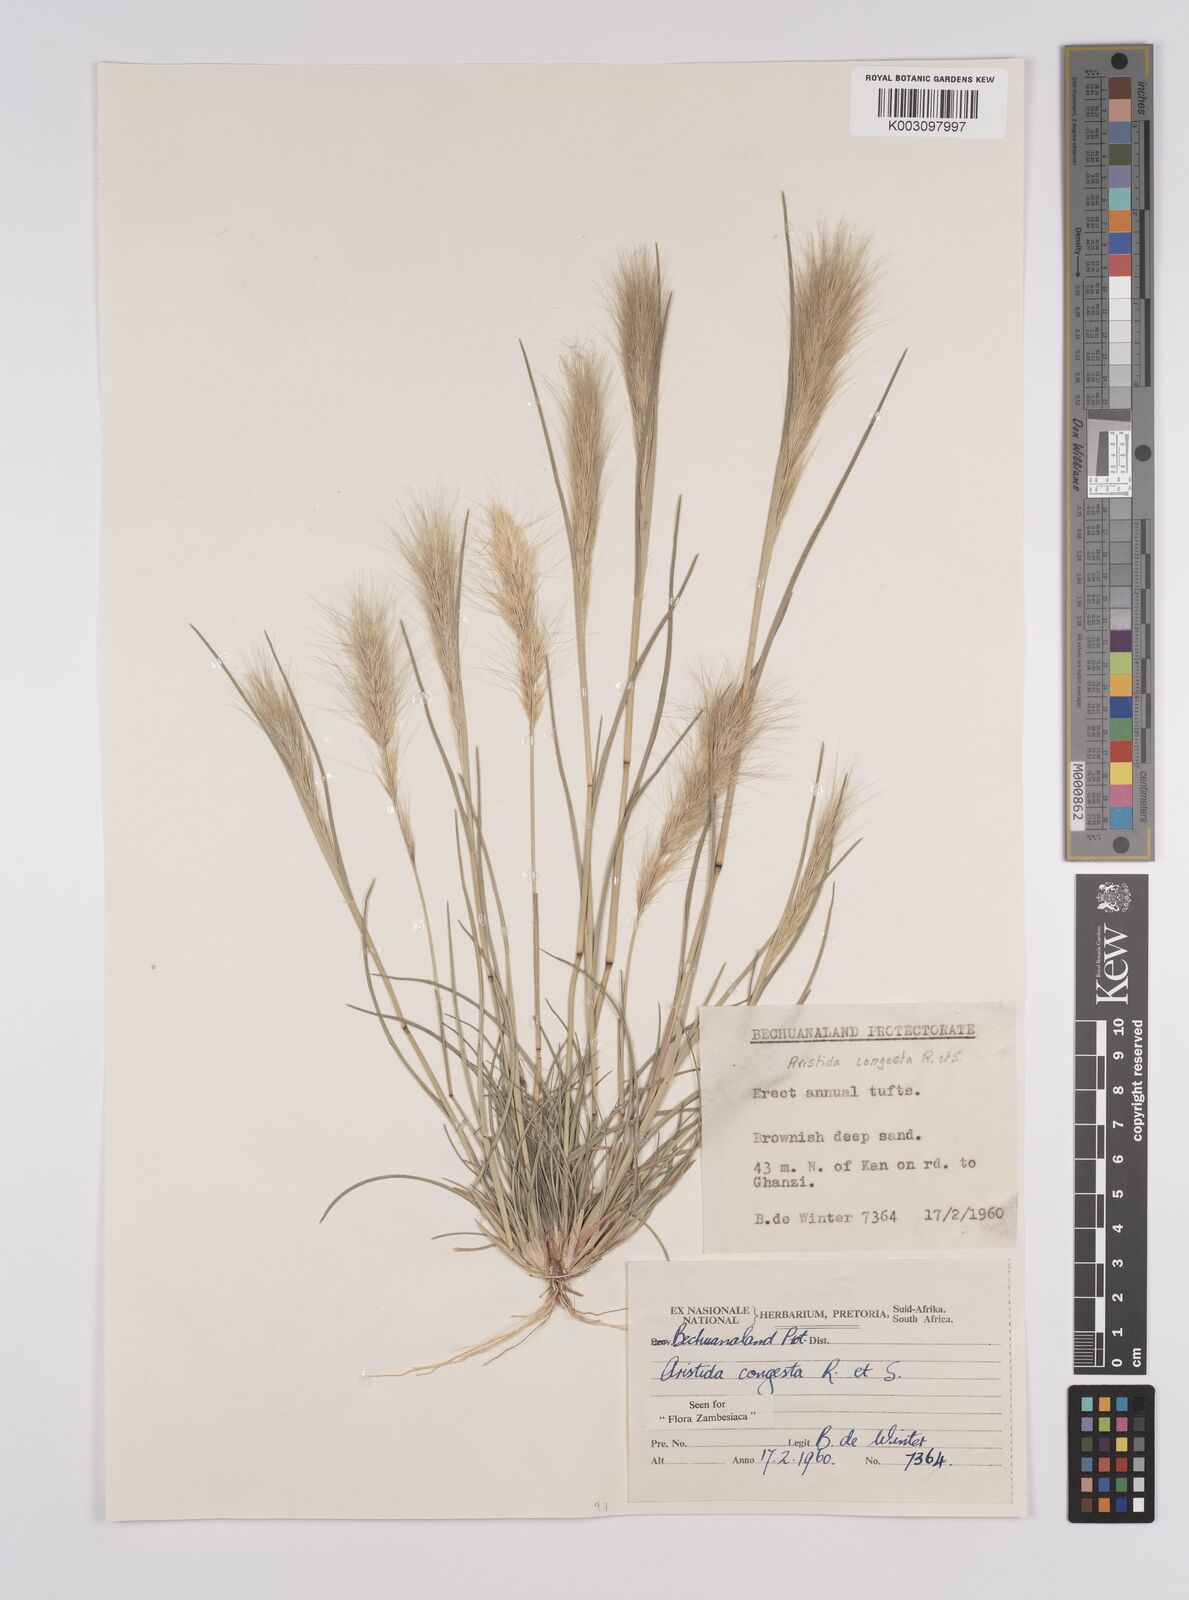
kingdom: Plantae
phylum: Tracheophyta
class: Liliopsida
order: Poales
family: Poaceae
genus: Aristida
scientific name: Aristida congesta
